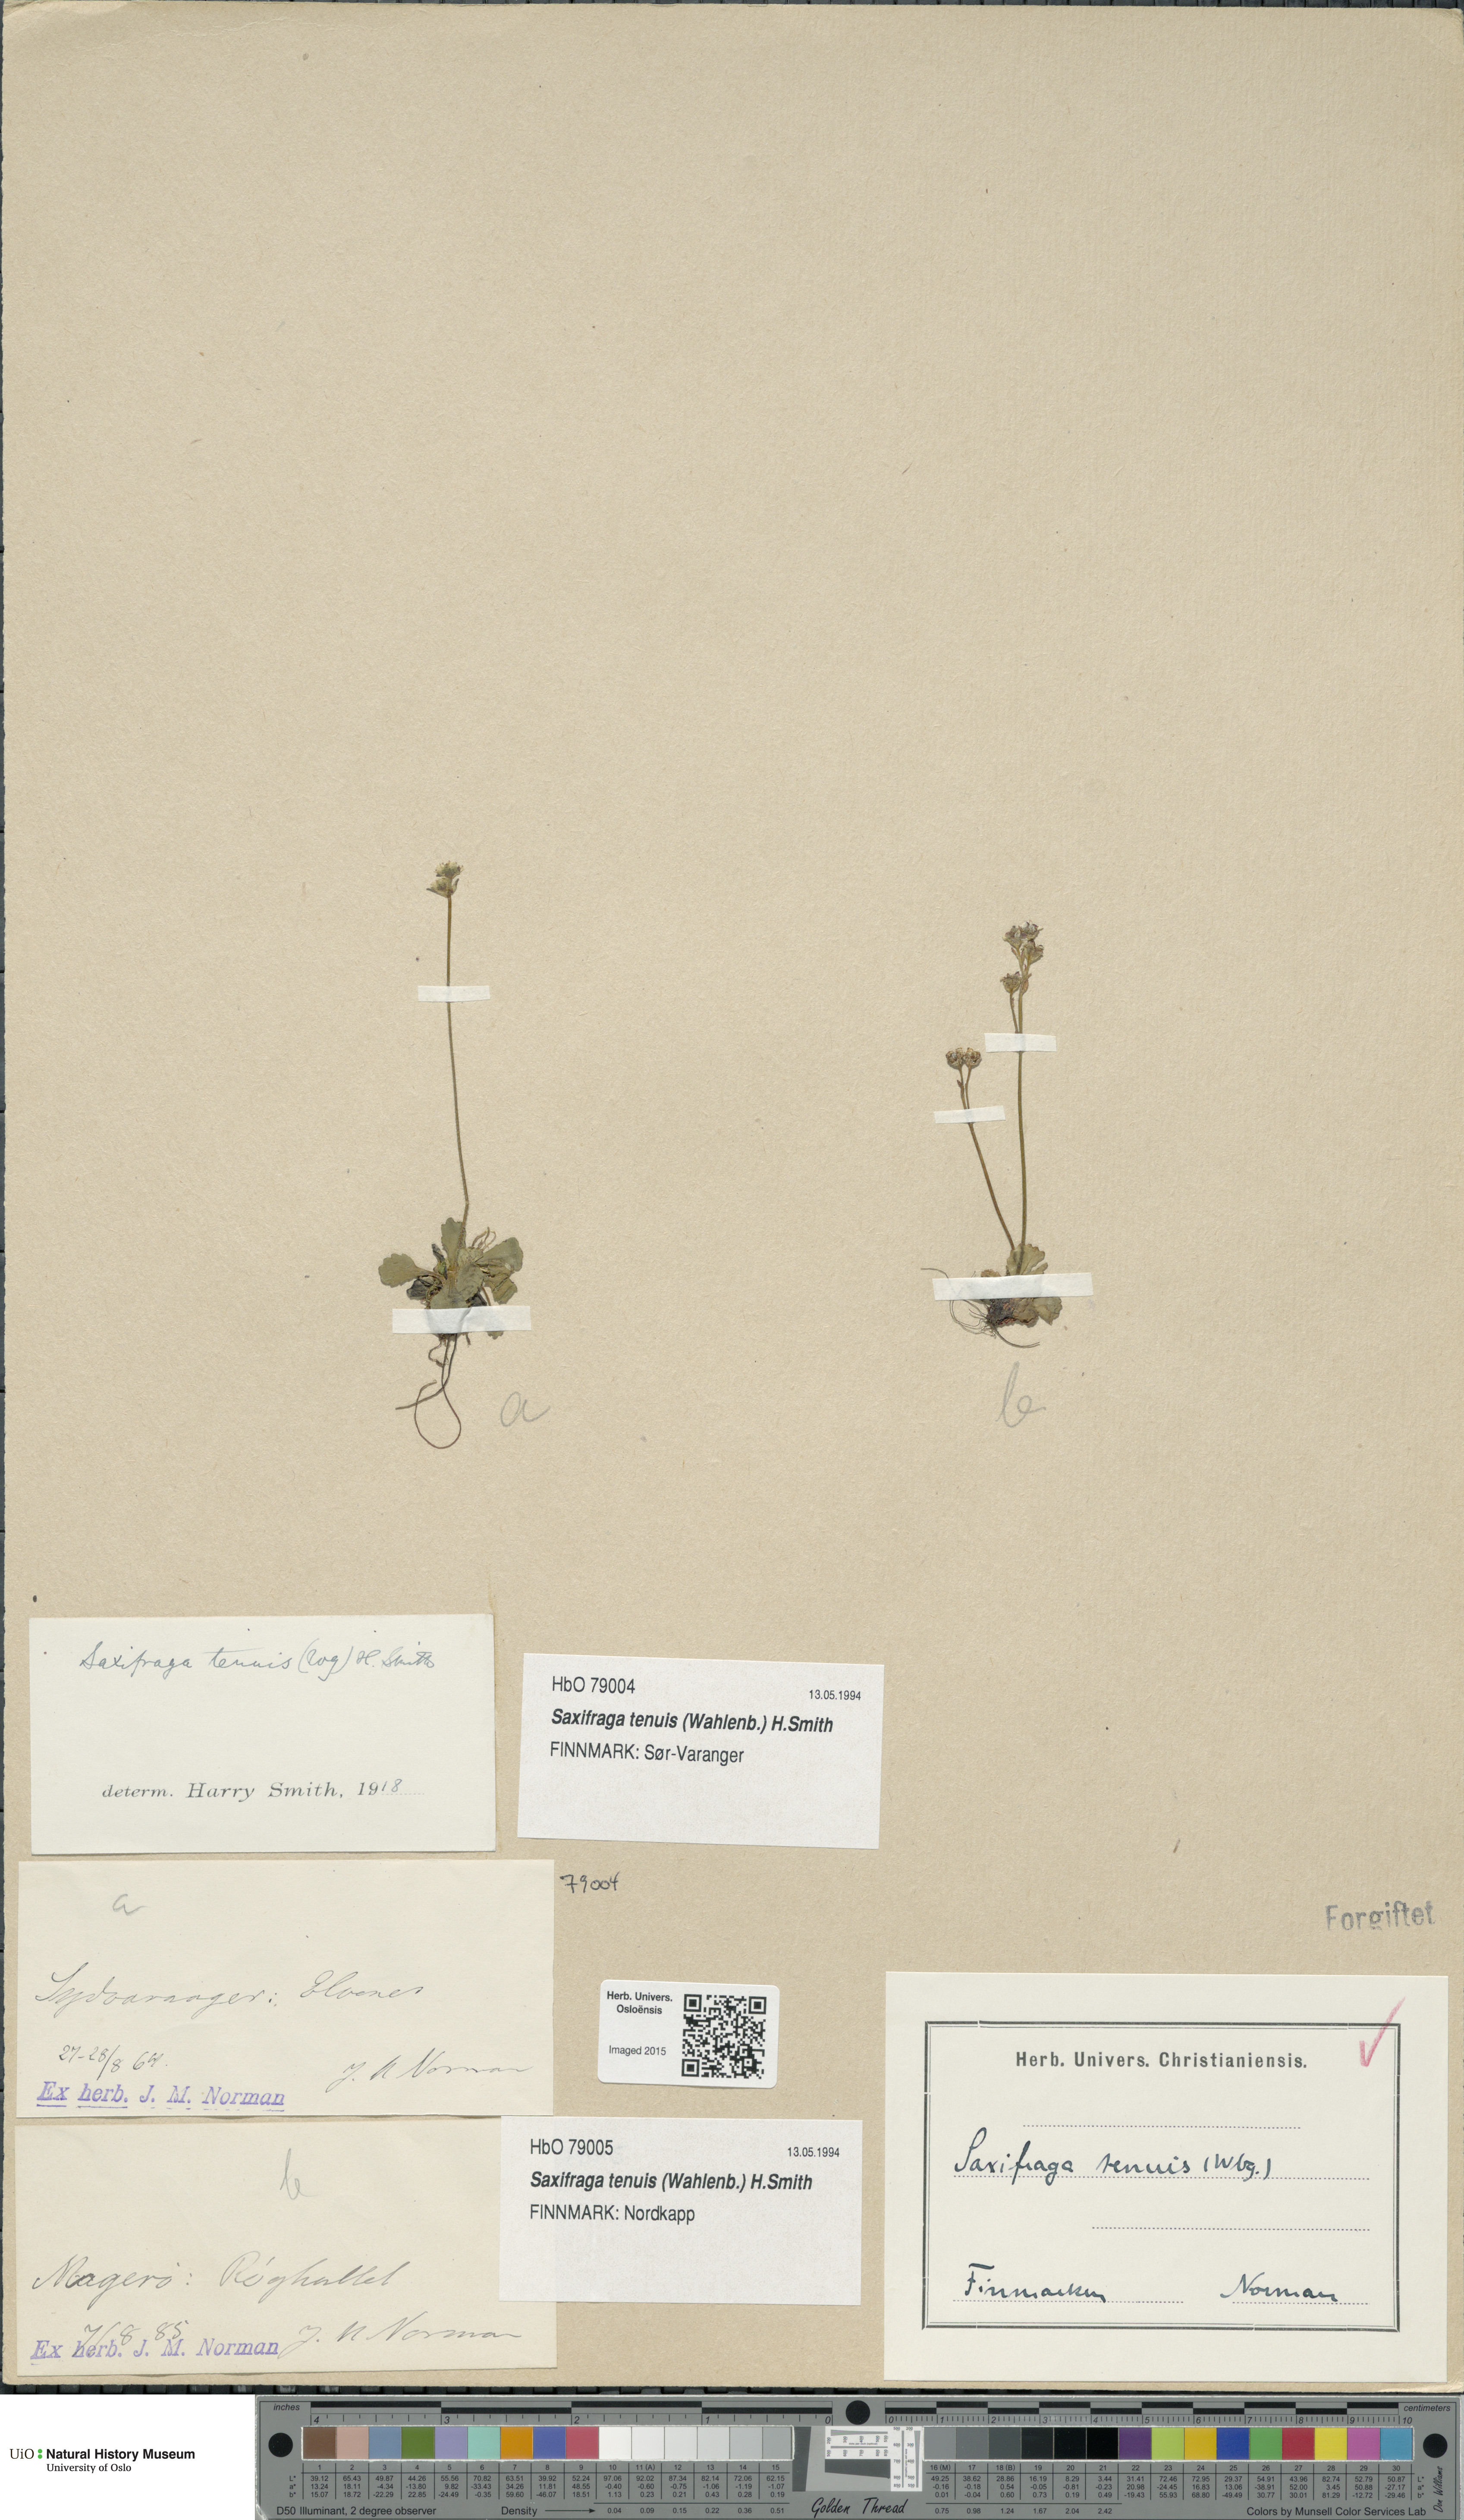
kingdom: Plantae
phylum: Tracheophyta
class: Magnoliopsida
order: Saxifragales
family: Saxifragaceae
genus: Micranthes
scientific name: Micranthes tenuis
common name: Ottertail pass saxifrage
